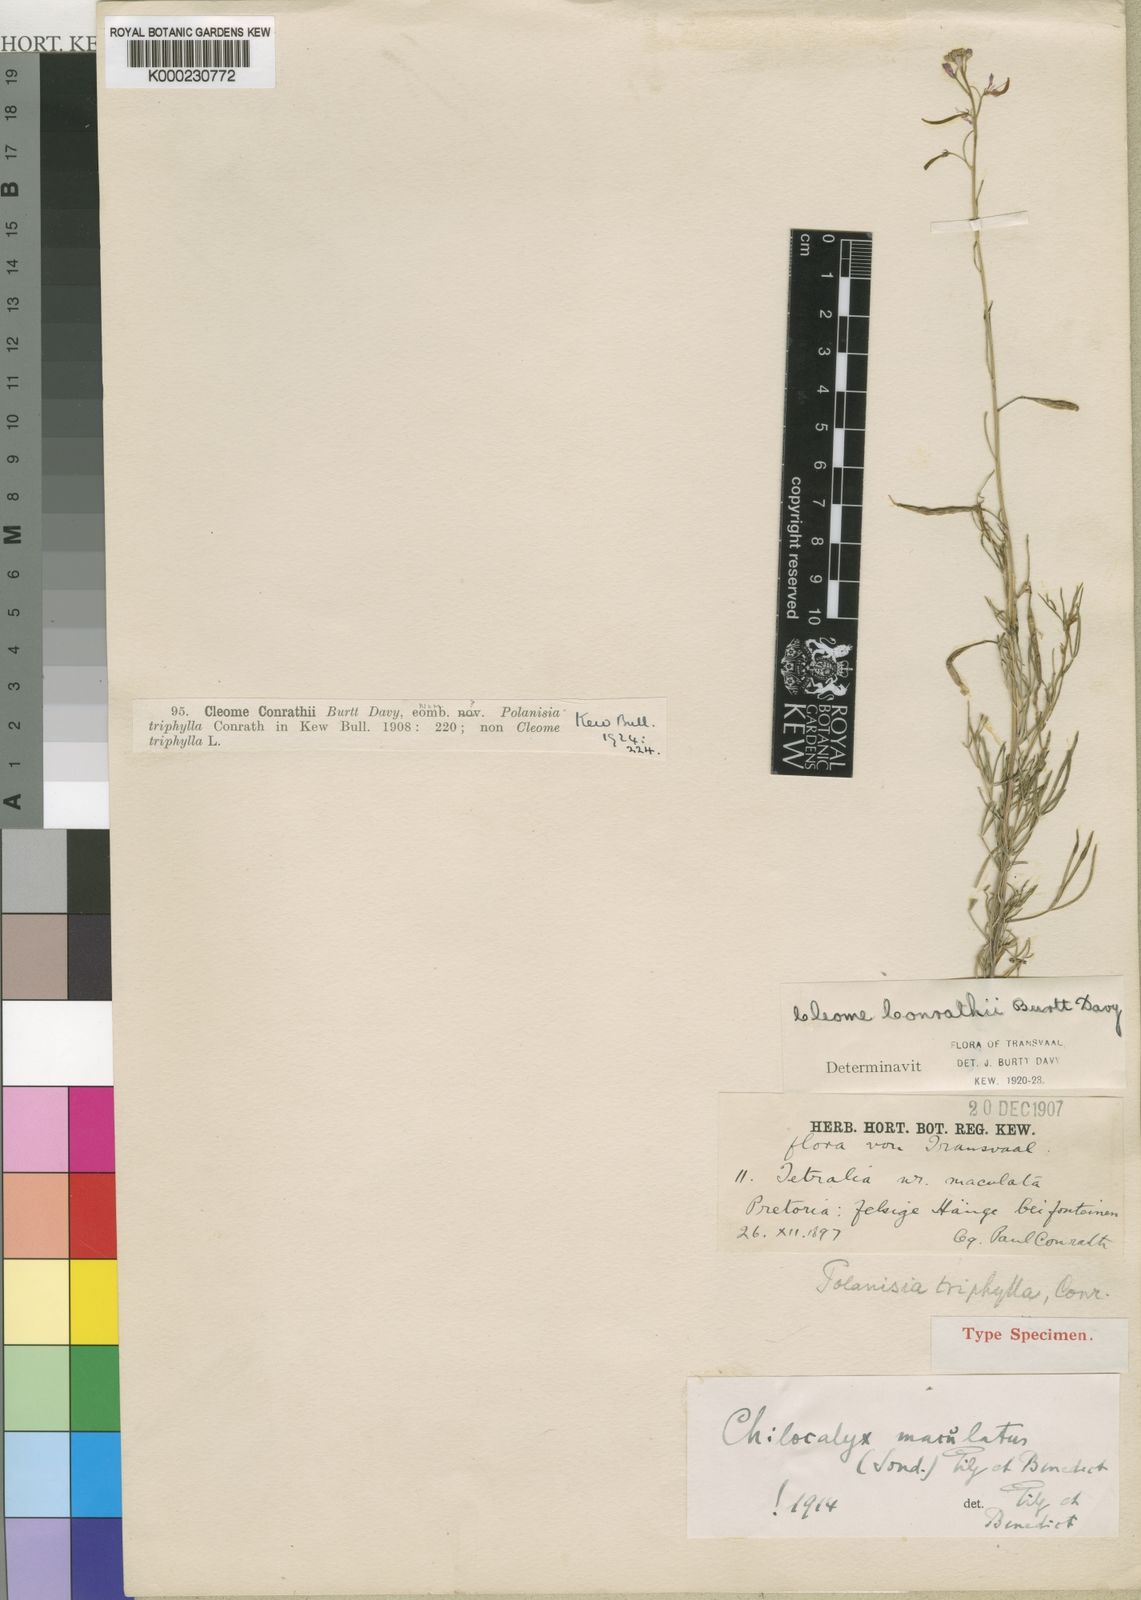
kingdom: Plantae
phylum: Tracheophyta
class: Magnoliopsida
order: Brassicales
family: Capparaceae
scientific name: Capparaceae
